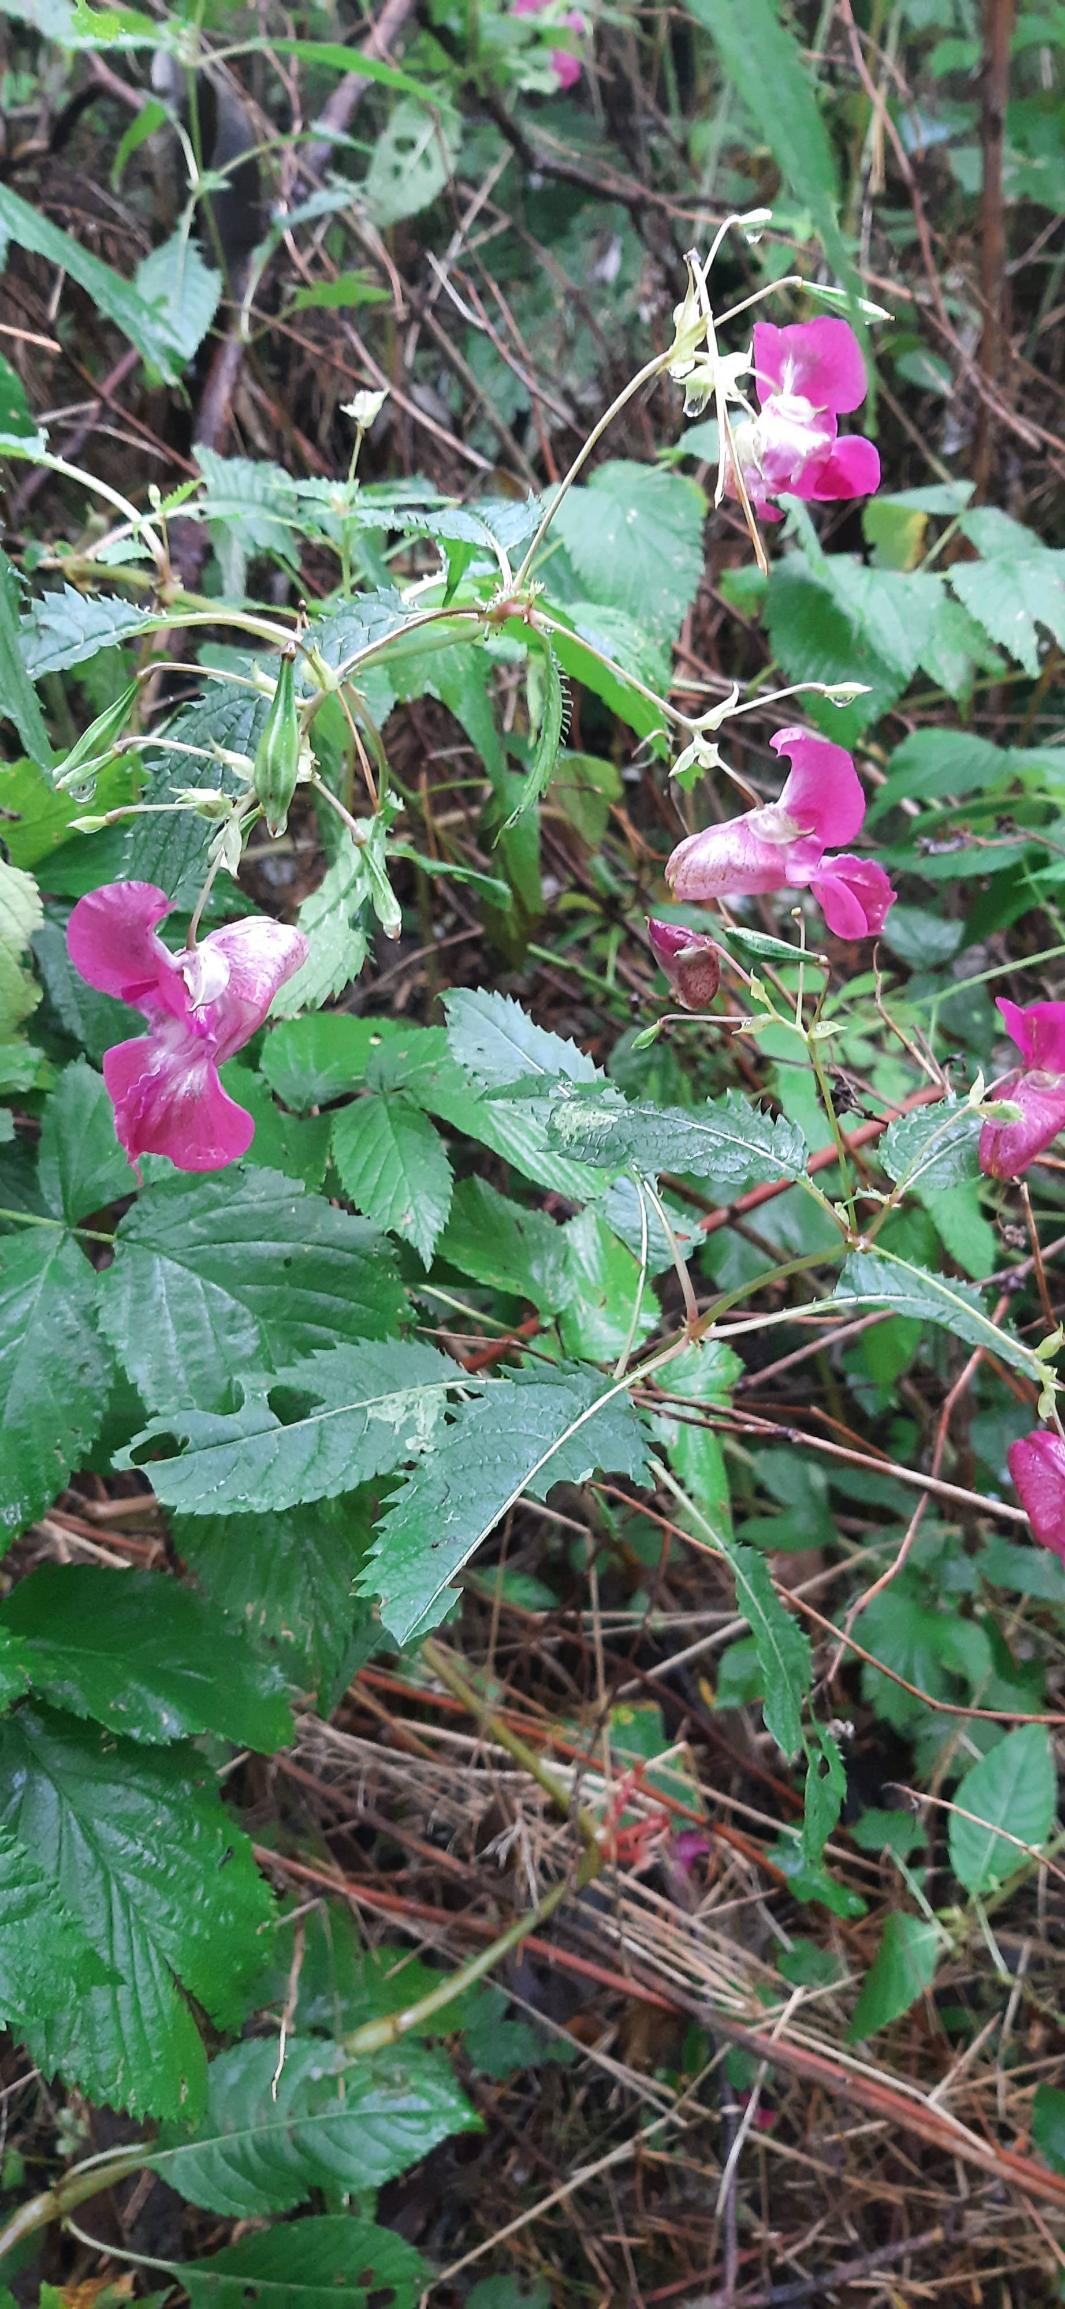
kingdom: Plantae
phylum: Tracheophyta
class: Magnoliopsida
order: Ericales
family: Balsaminaceae
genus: Impatiens
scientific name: Impatiens glandulifera
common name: Kæmpe-balsamin
